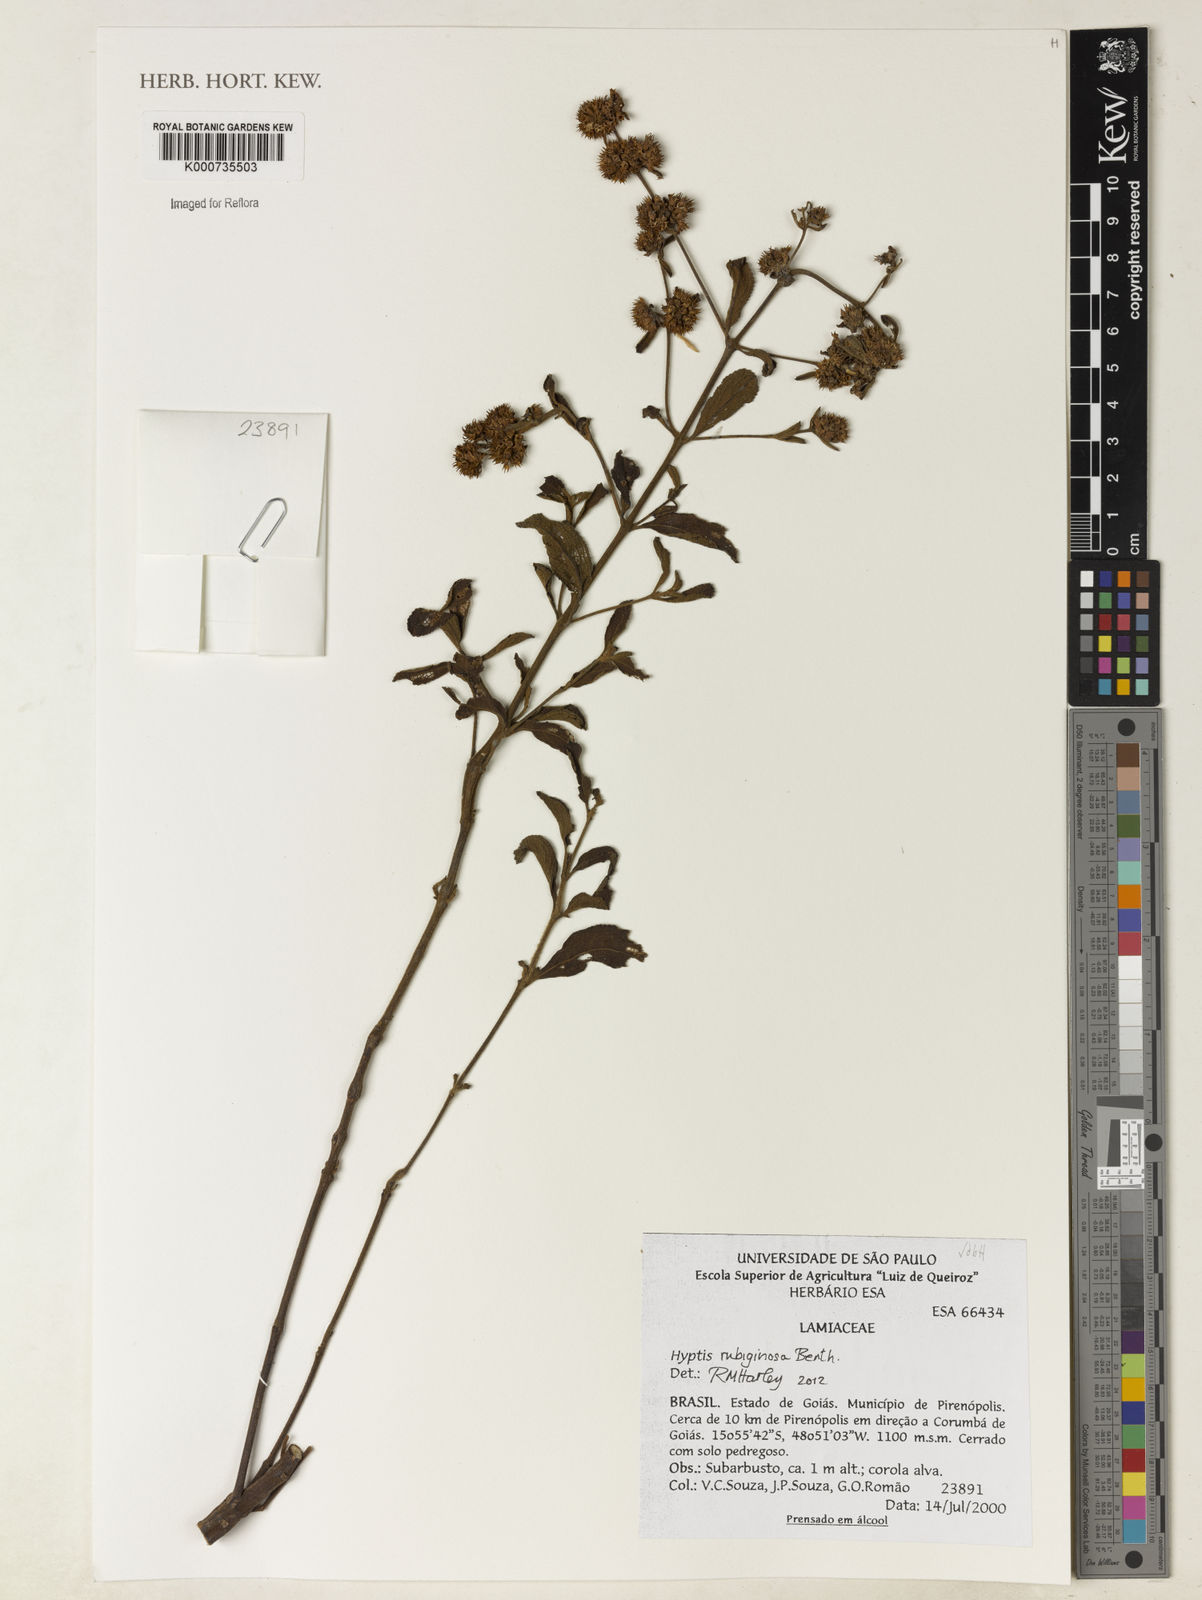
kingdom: Plantae
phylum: Tracheophyta
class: Magnoliopsida
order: Lamiales
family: Lamiaceae
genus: Hyptis
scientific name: Hyptis rubiginosa
